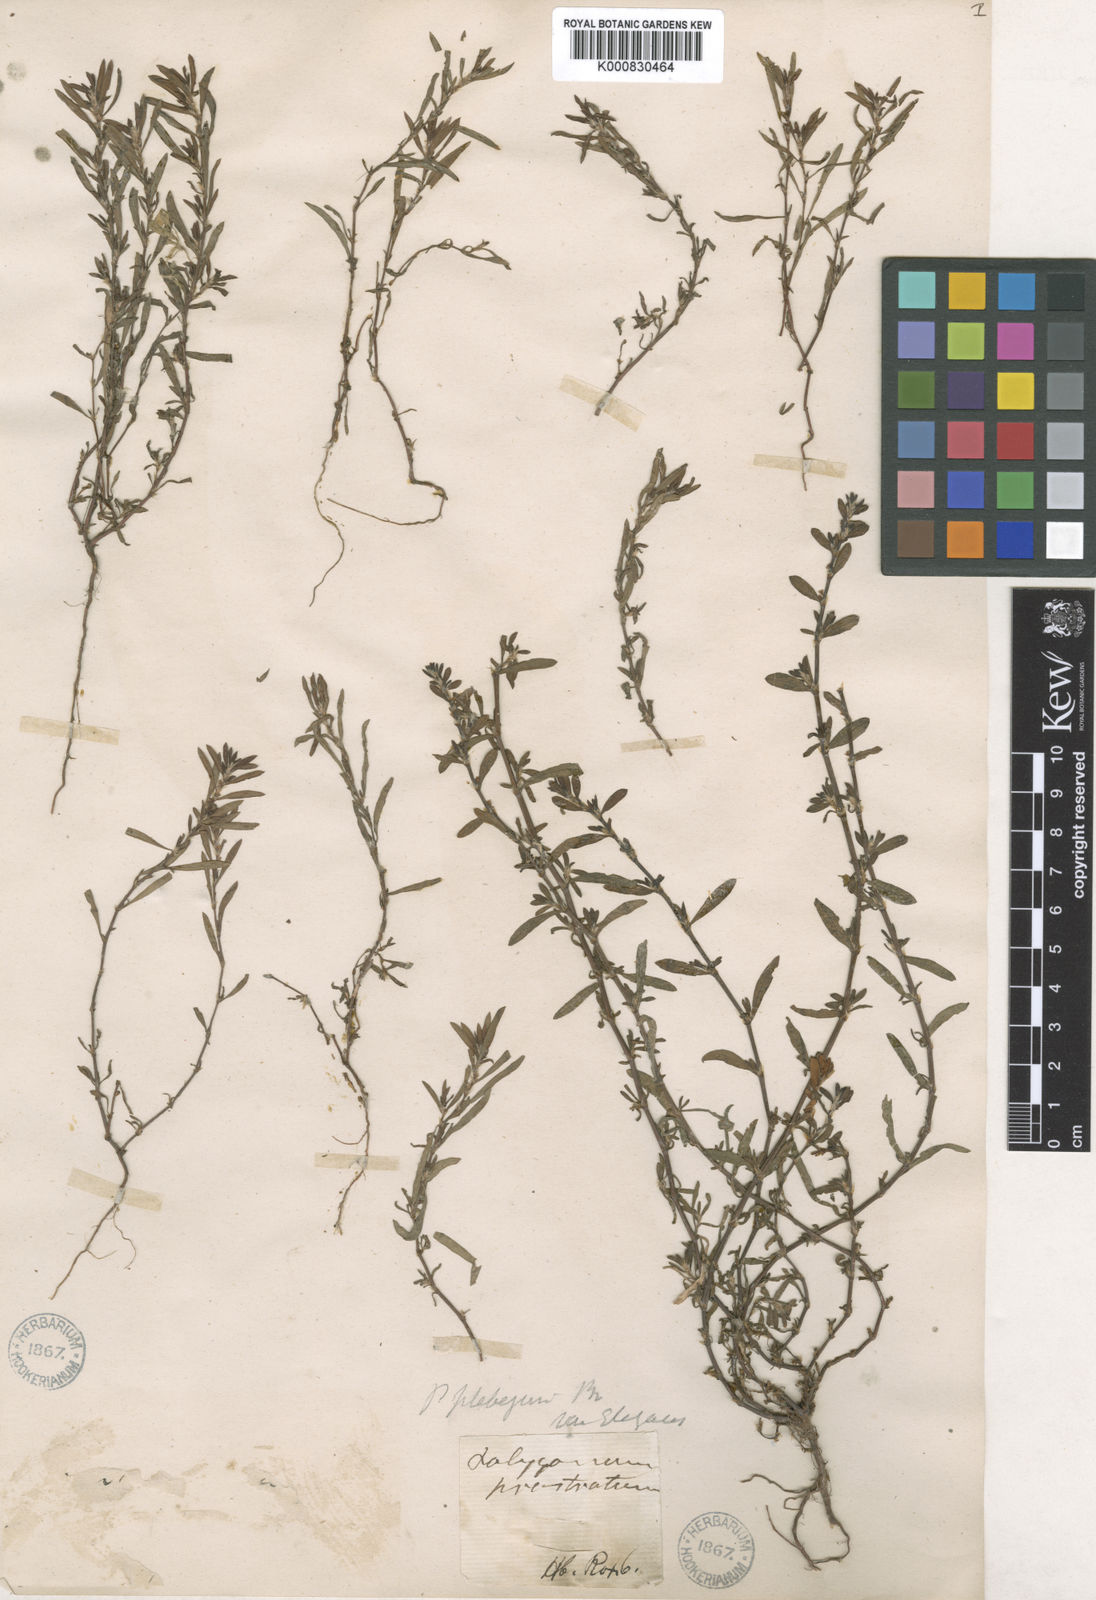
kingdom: Plantae
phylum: Tracheophyta
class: Magnoliopsida
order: Caryophyllales
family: Polygonaceae
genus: Polygonum
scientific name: Polygonum plebeium
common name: Common knotweed
